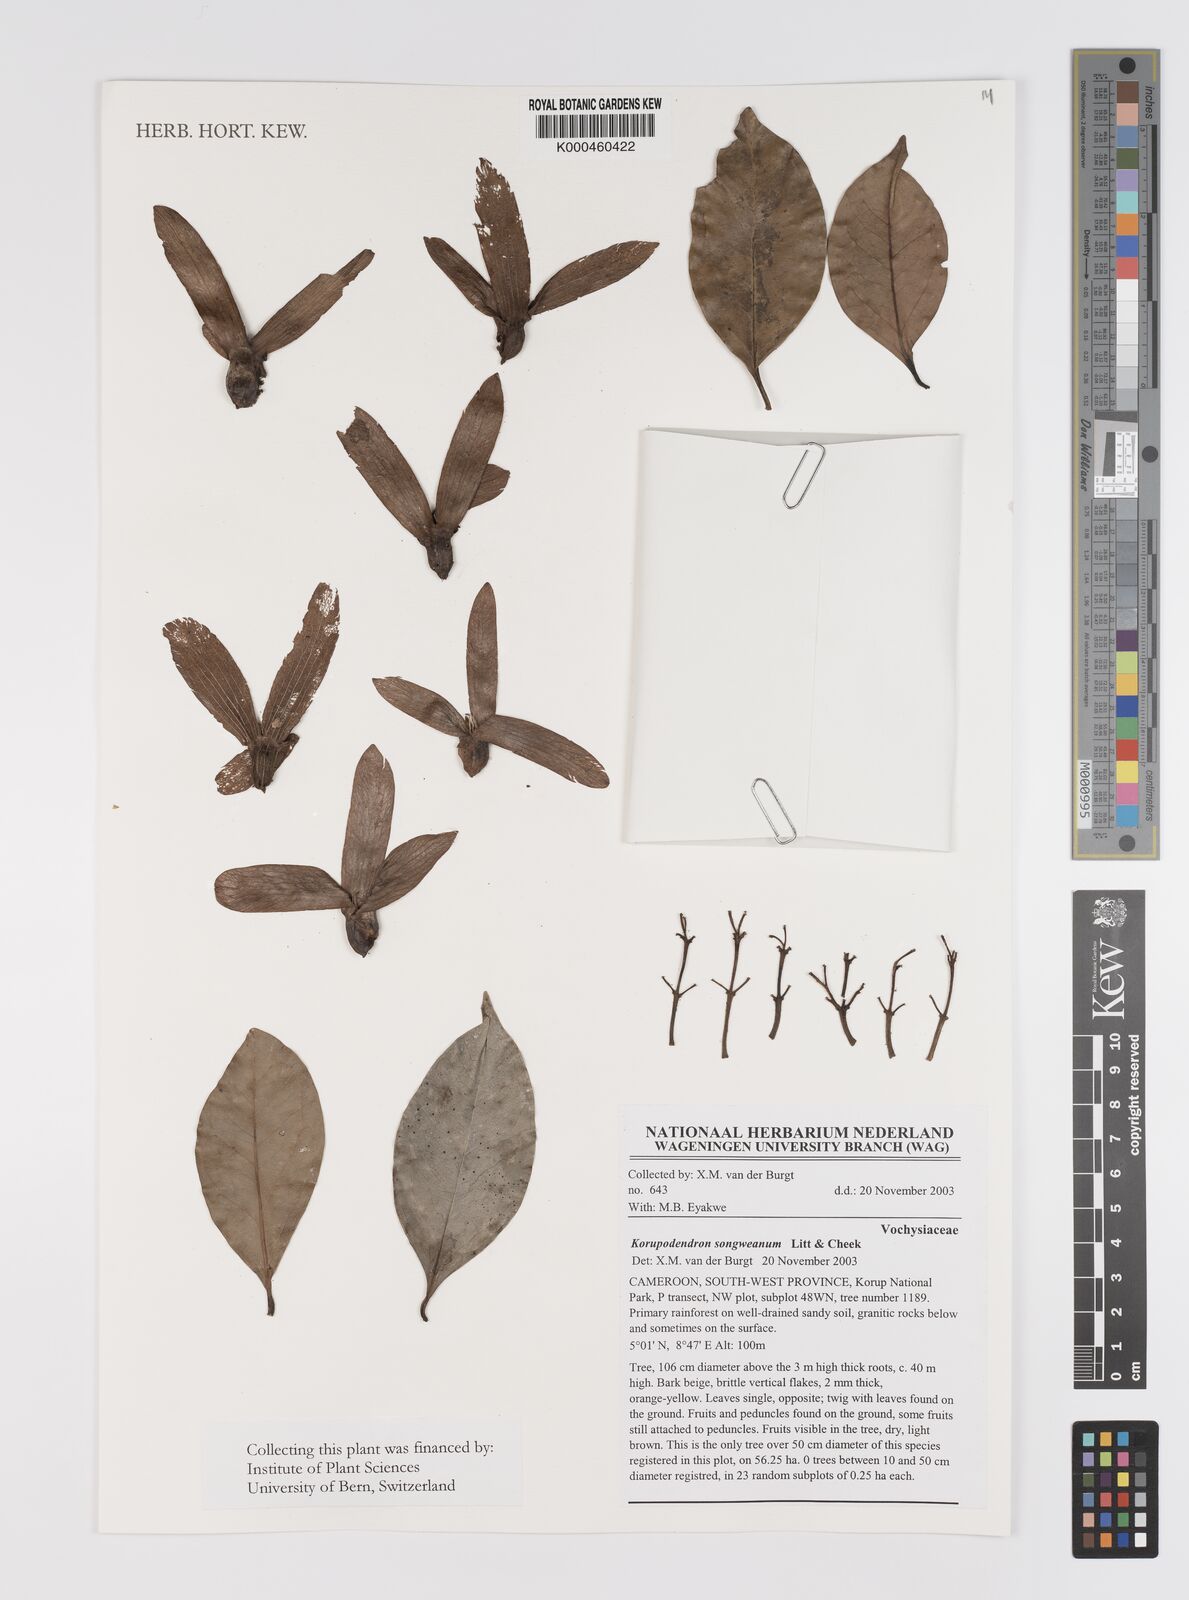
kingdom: Plantae
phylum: Tracheophyta
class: Magnoliopsida
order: Myrtales
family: Vochysiaceae
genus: Korupodendron
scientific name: Korupodendron songweanum
